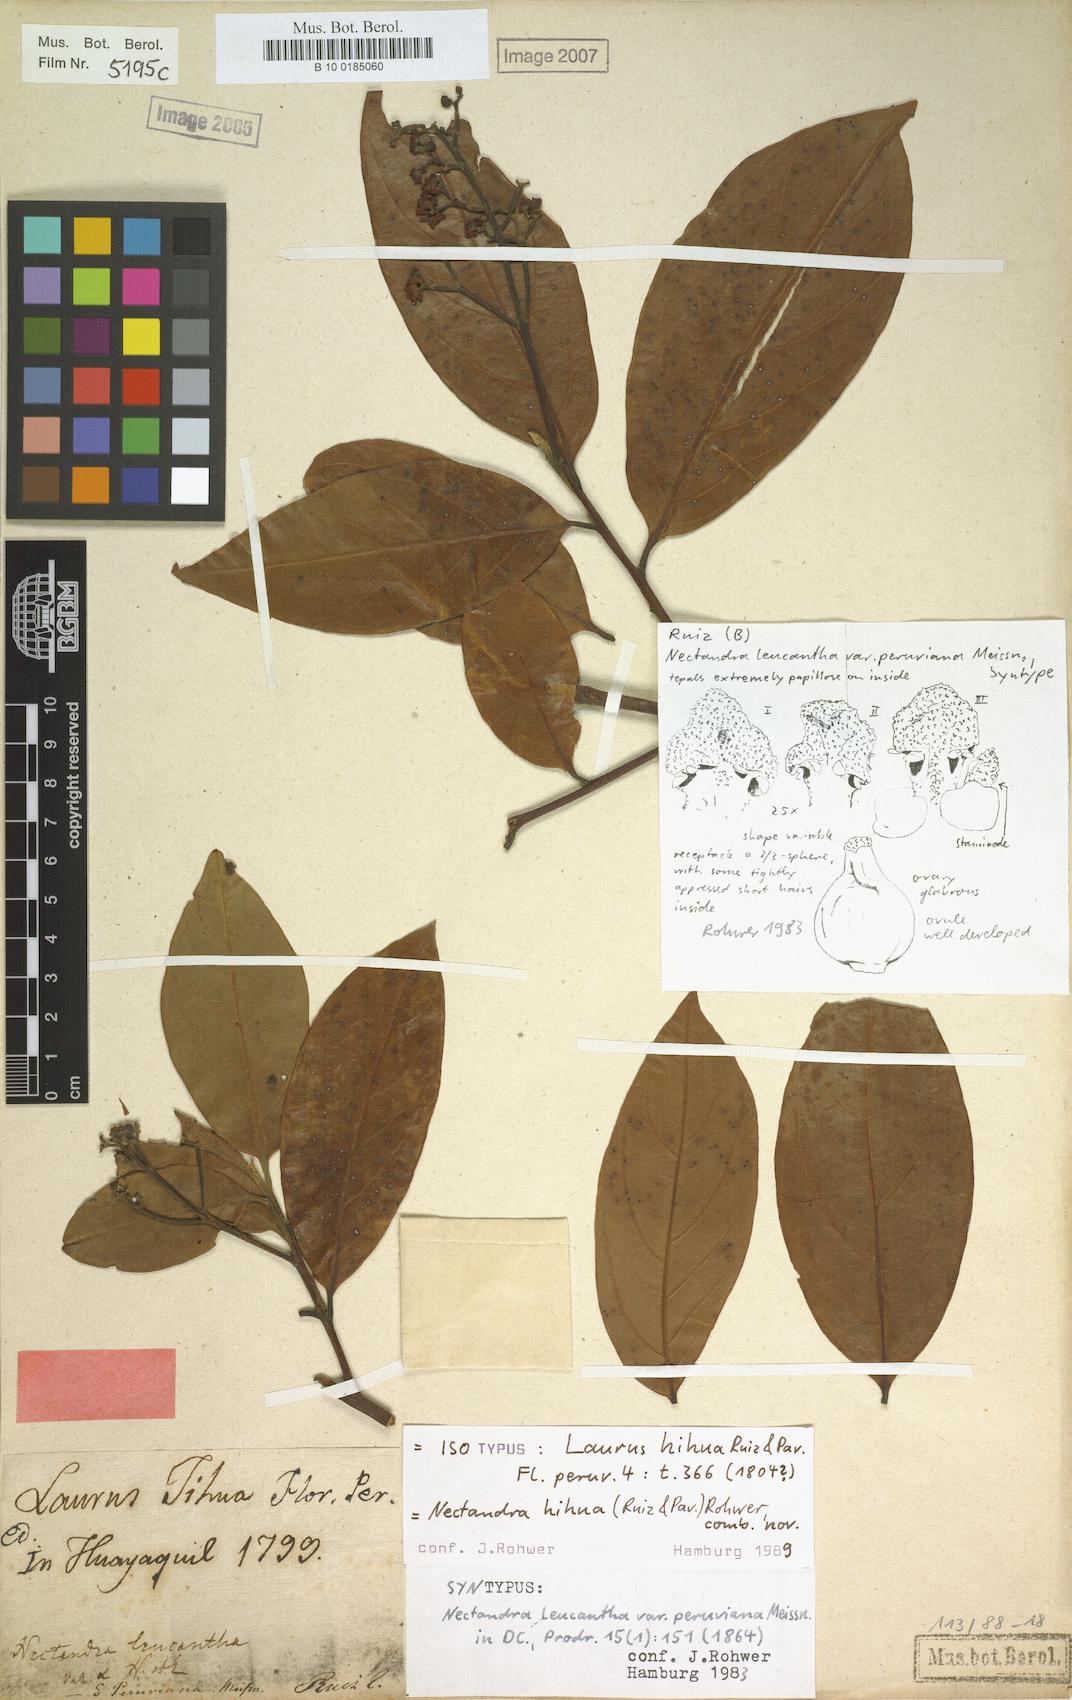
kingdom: Plantae
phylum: Tracheophyta
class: Magnoliopsida
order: Laurales
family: Lauraceae
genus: Nectandra
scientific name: Nectandra hihua
